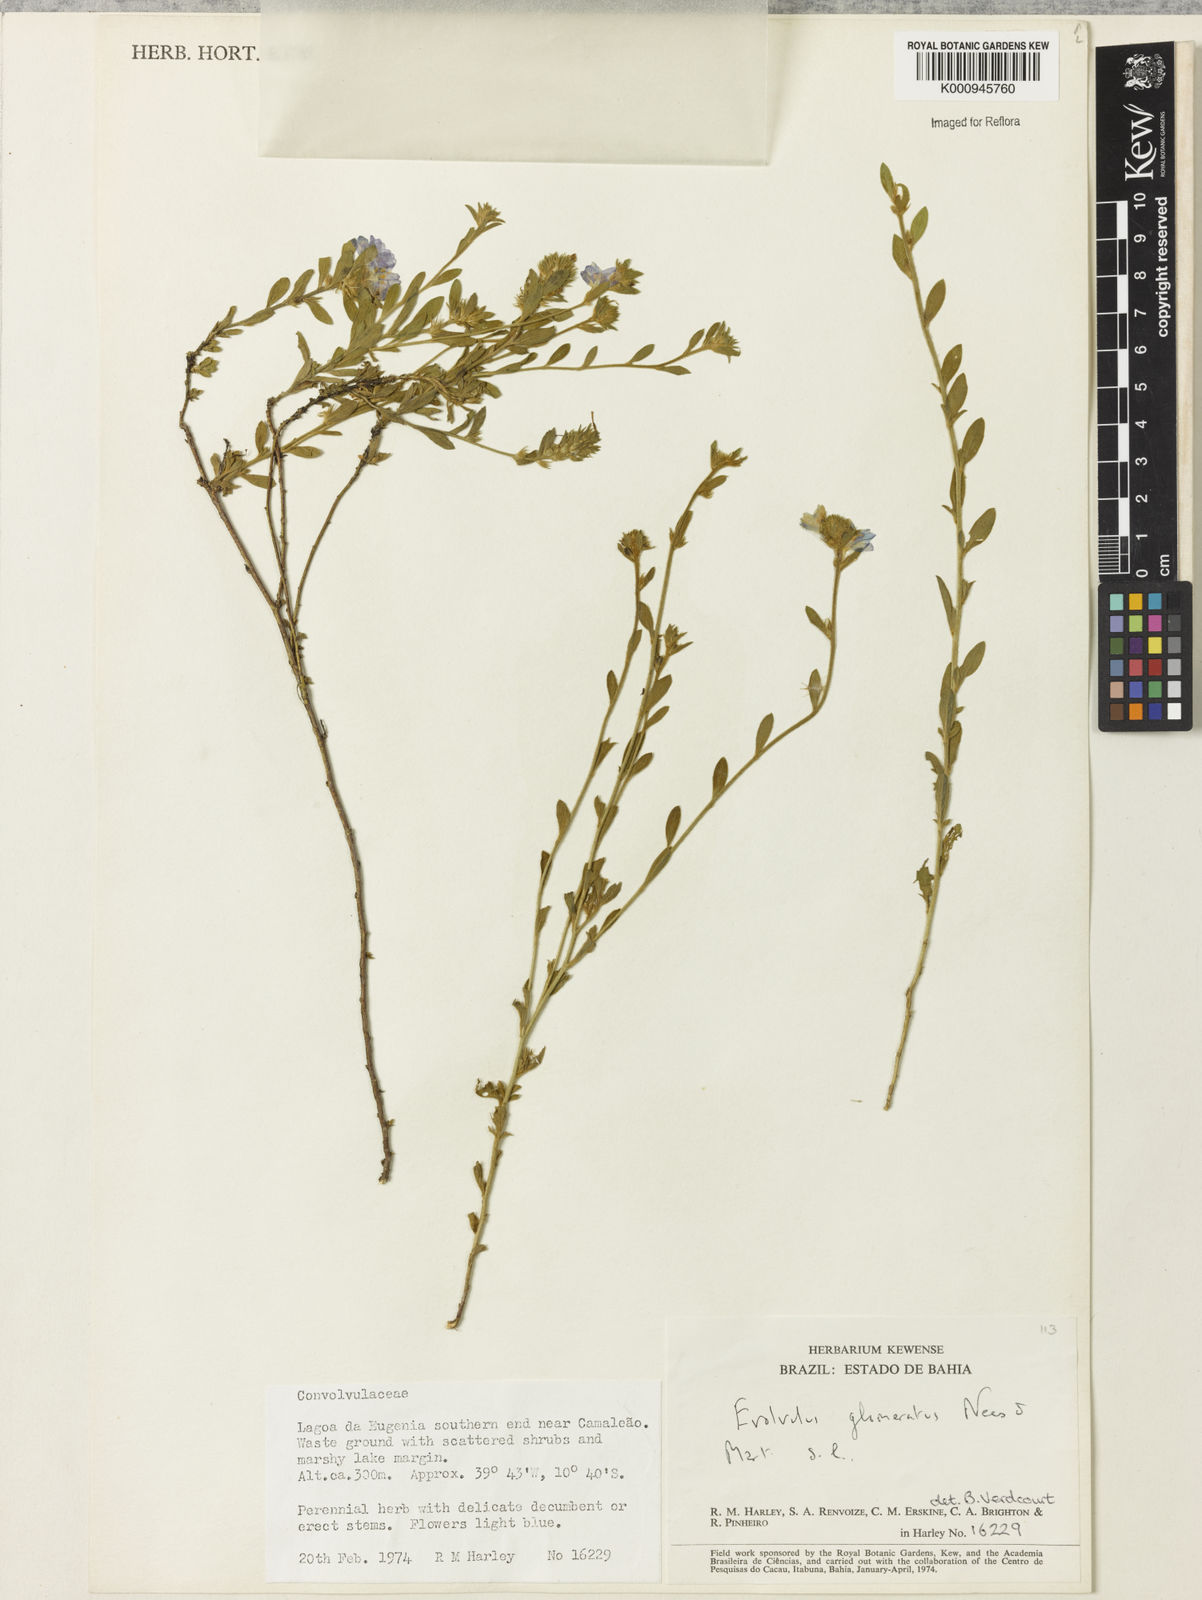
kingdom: Plantae
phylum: Tracheophyta
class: Magnoliopsida
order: Solanales
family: Convolvulaceae
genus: Evolvulus
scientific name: Evolvulus glomeratus
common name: Brazilian dwarf morning-glory
